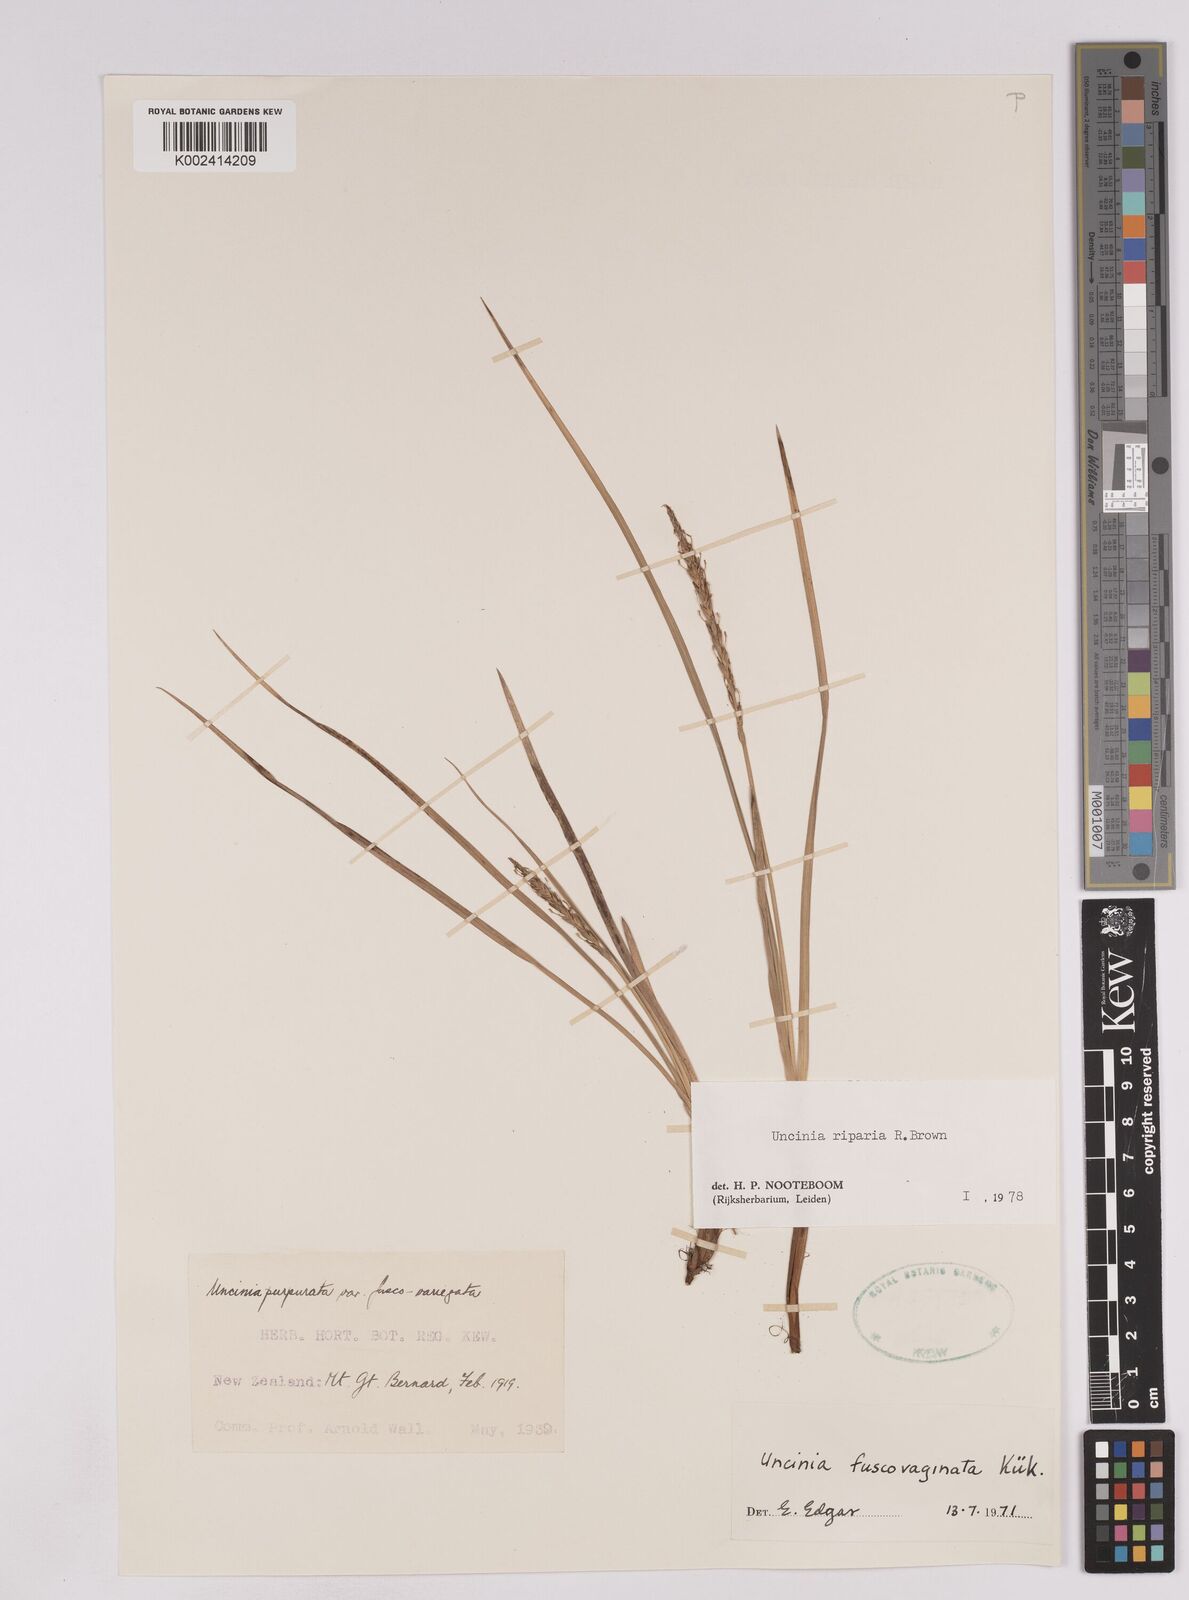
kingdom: Plantae
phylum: Tracheophyta
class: Liliopsida
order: Poales
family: Cyperaceae
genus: Carex
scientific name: Carex penalpina
